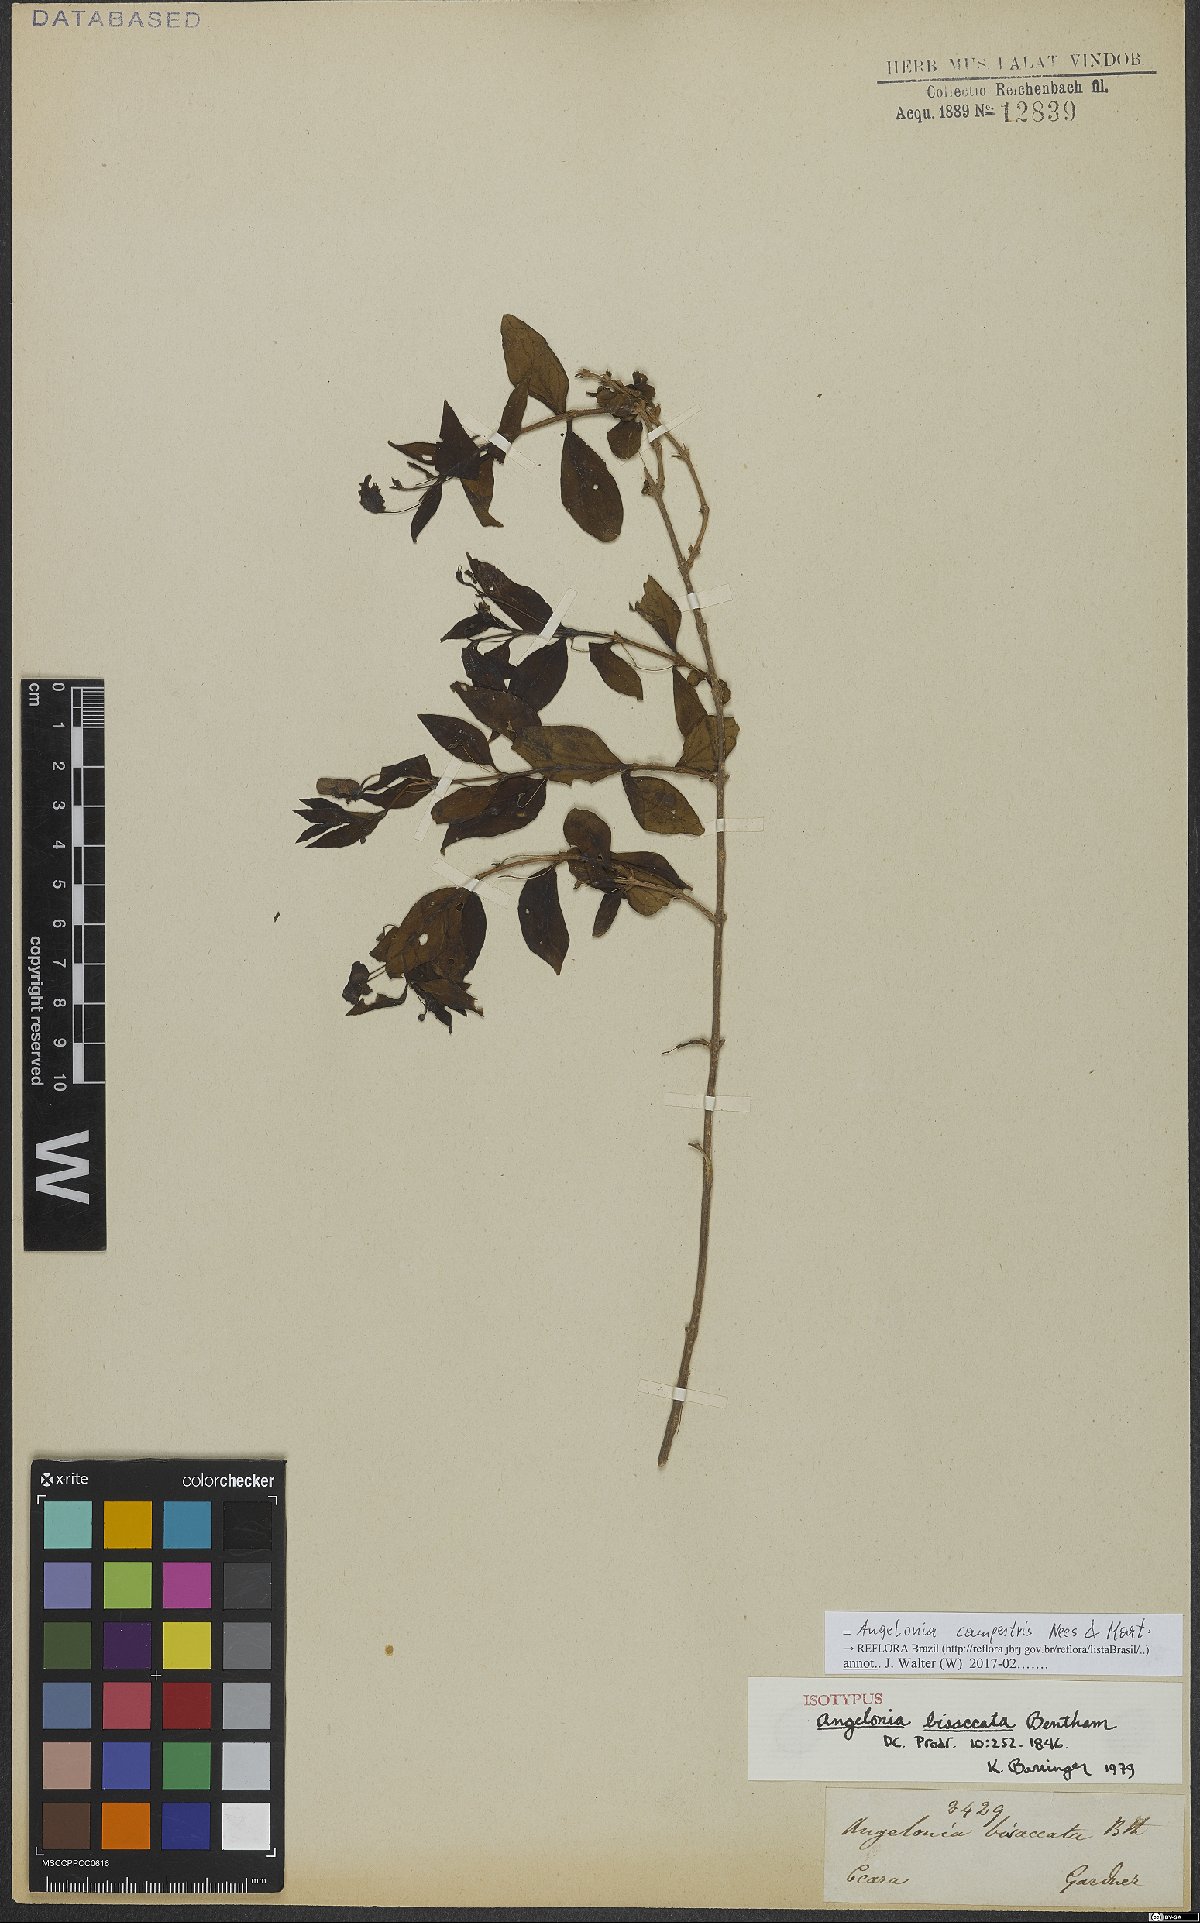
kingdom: Plantae
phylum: Tracheophyta
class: Magnoliopsida
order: Lamiales
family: Plantaginaceae
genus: Angelonia
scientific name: Angelonia campestris
